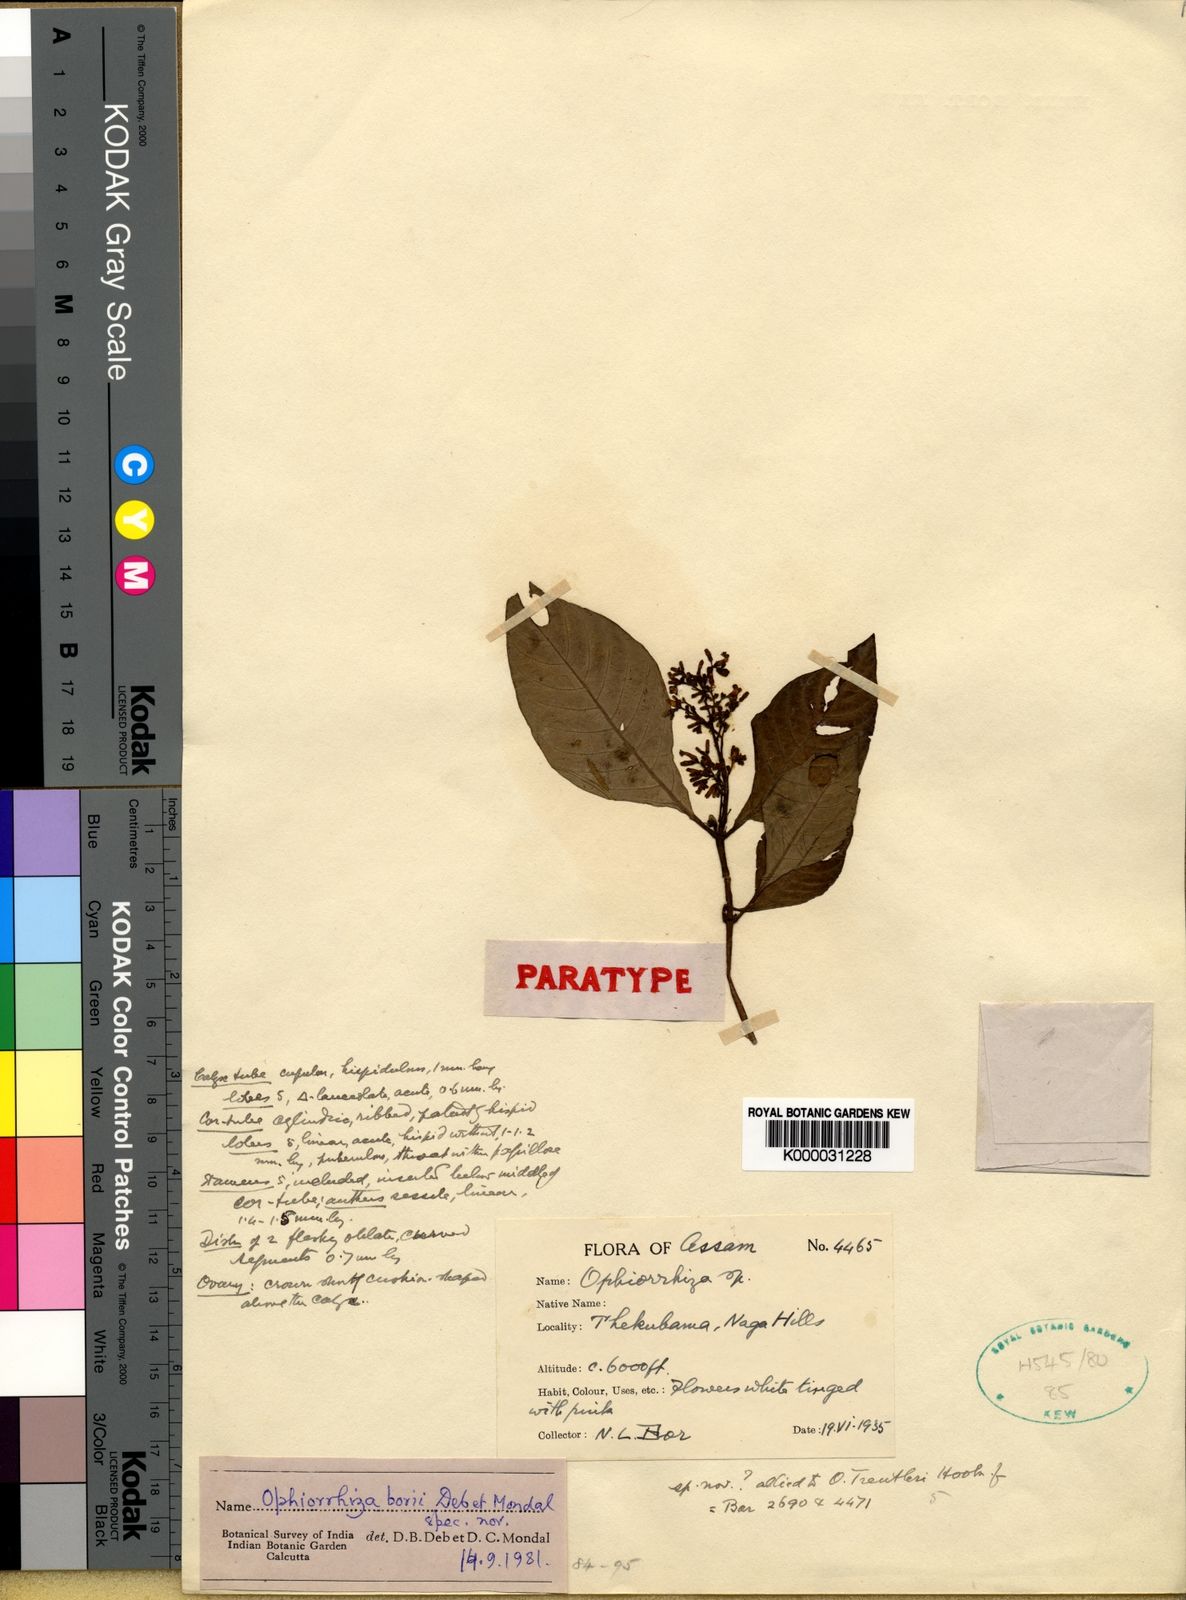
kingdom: Plantae
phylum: Tracheophyta
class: Magnoliopsida
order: Gentianales
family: Rubiaceae
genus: Ophiorrhiza
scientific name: Ophiorrhiza borii
